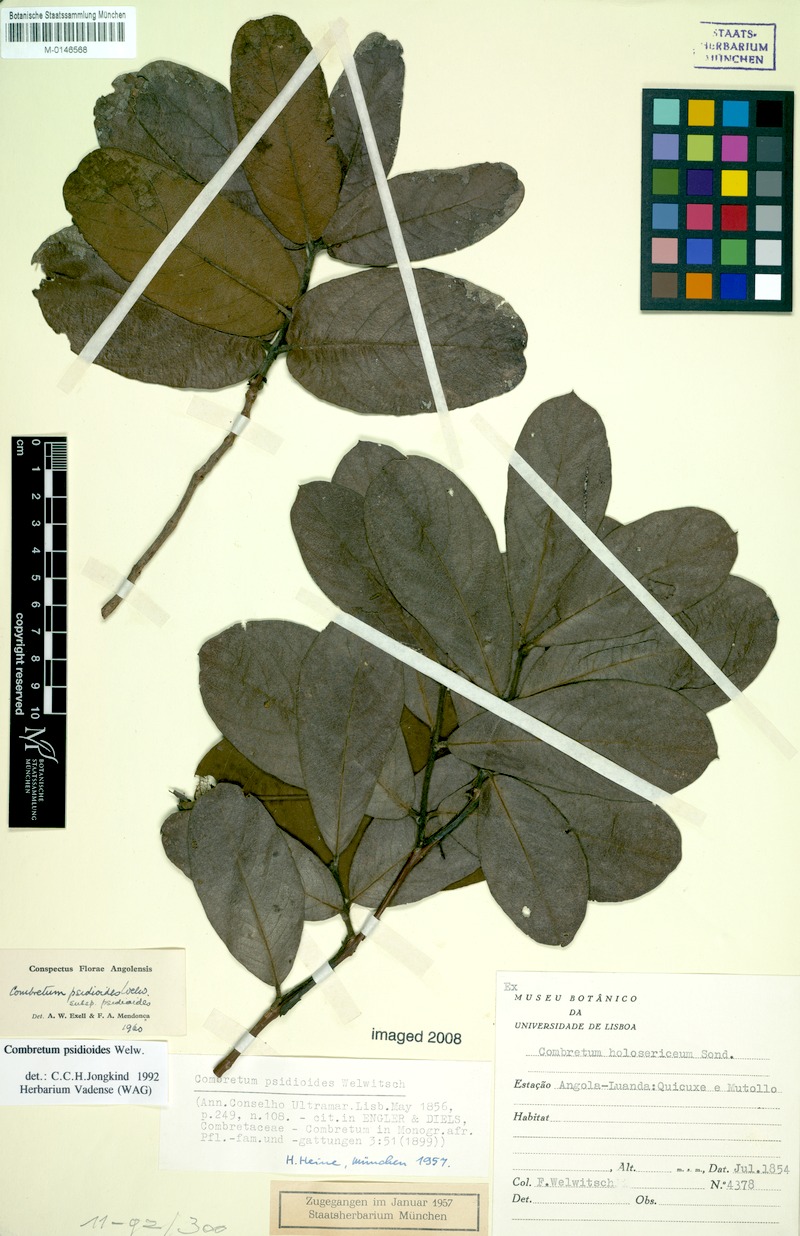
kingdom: Plantae
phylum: Tracheophyta
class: Magnoliopsida
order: Myrtales
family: Combretaceae
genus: Combretum
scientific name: Combretum psidioides
